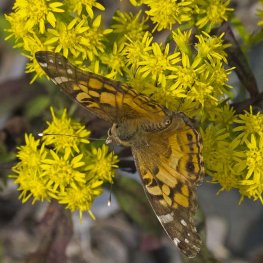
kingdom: Animalia
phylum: Arthropoda
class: Insecta
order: Lepidoptera
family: Nymphalidae
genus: Vanessa
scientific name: Vanessa virginiensis
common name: American Lady
